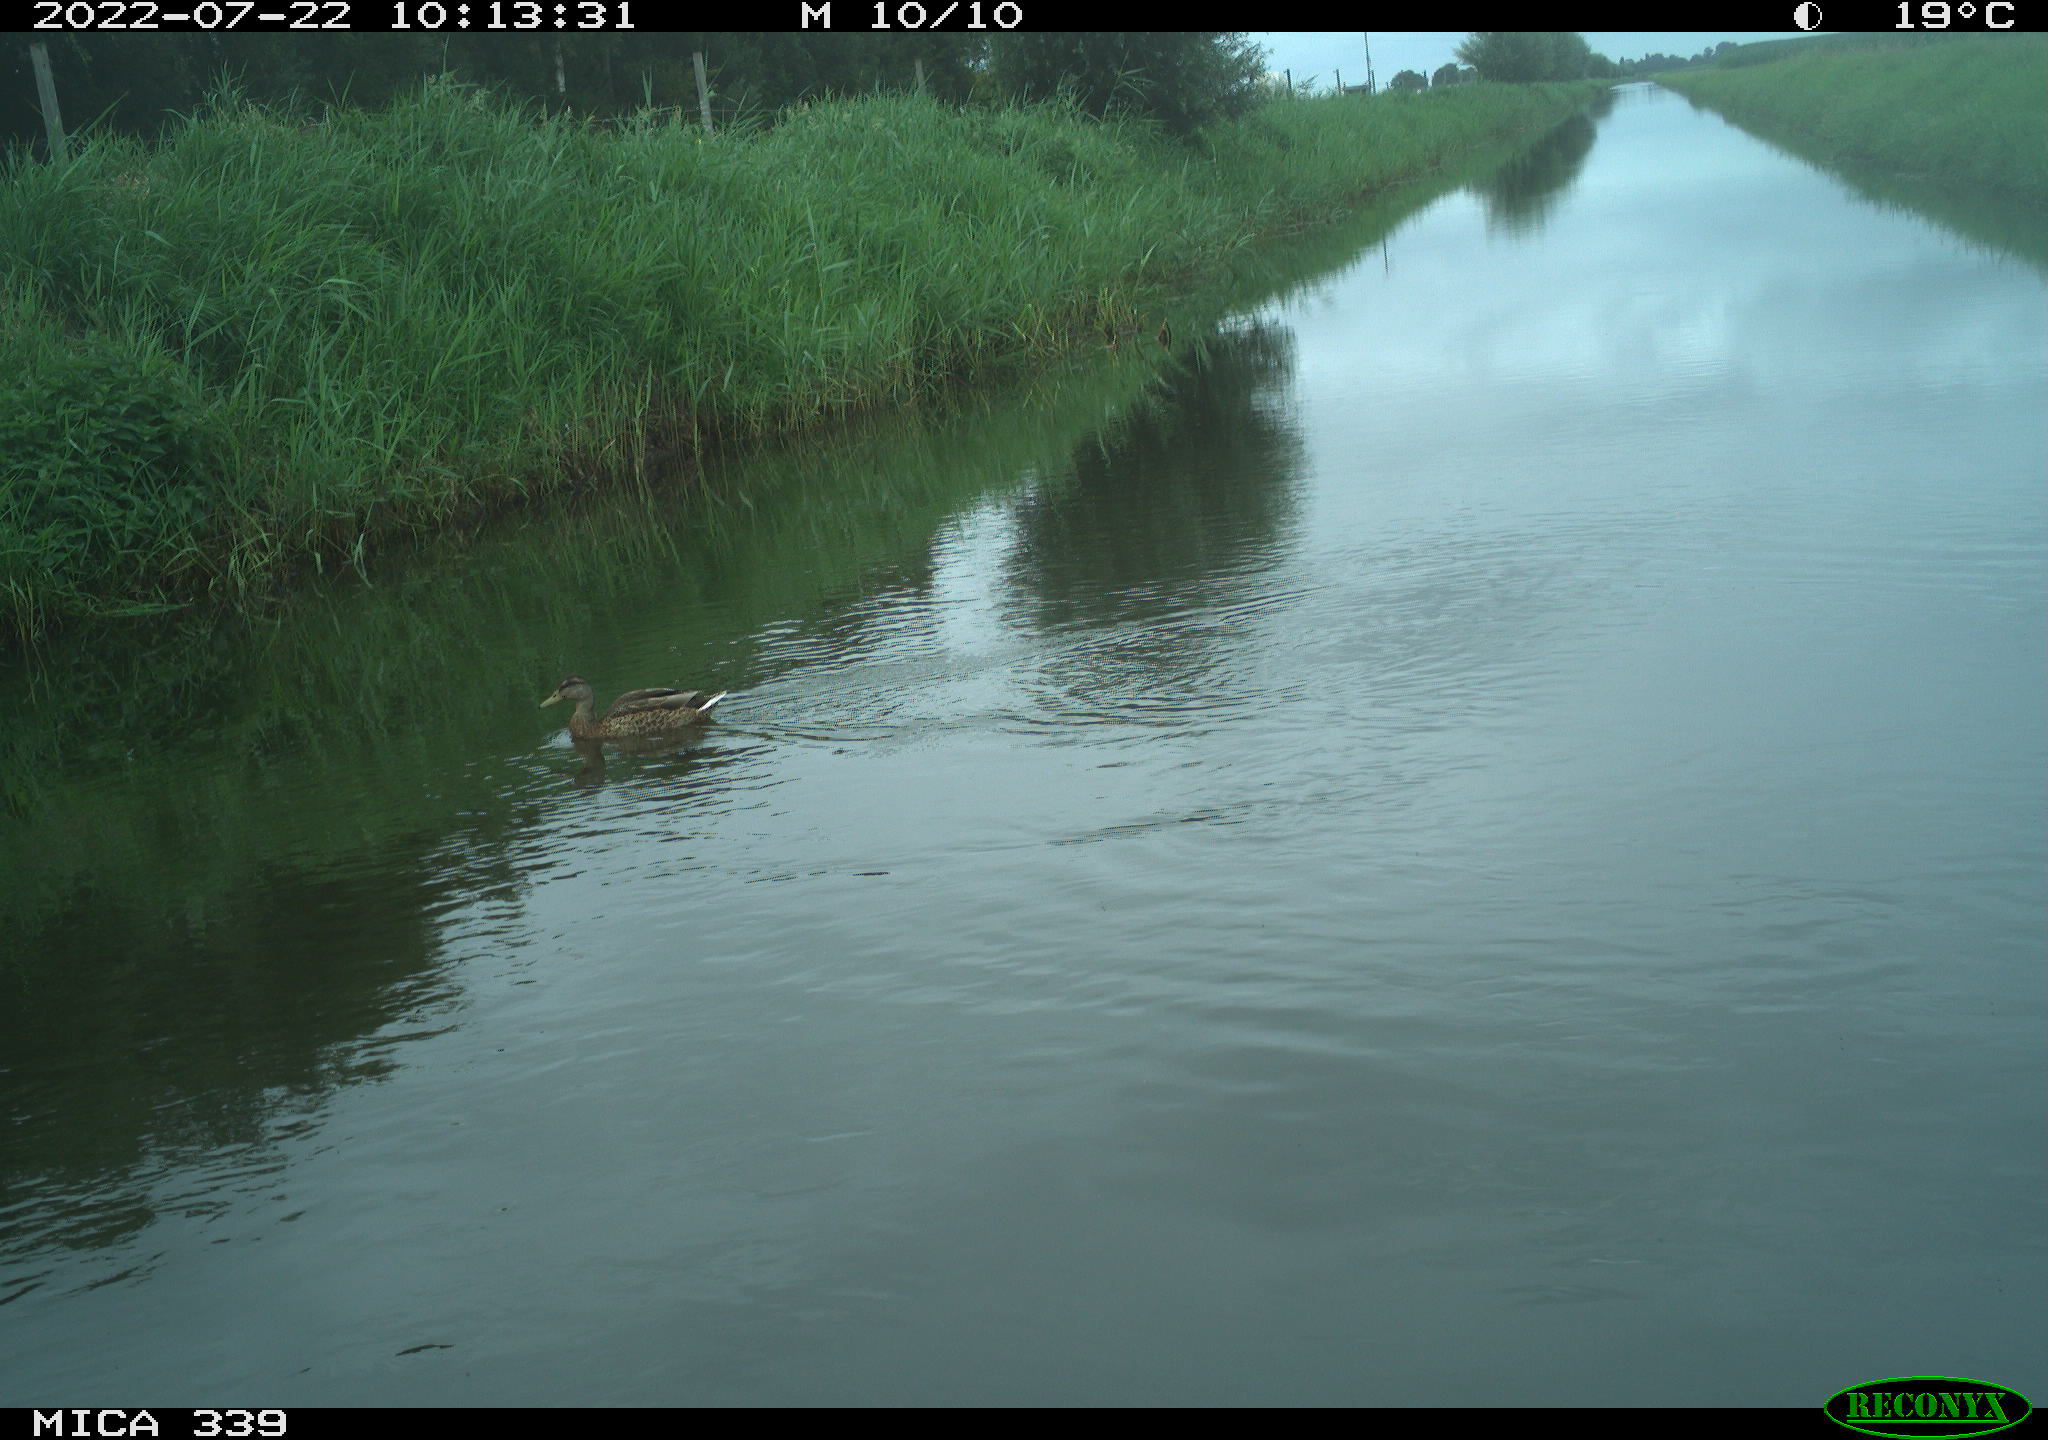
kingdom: Animalia
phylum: Chordata
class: Aves
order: Anseriformes
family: Anatidae
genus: Mareca
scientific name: Mareca strepera
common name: Gadwall
